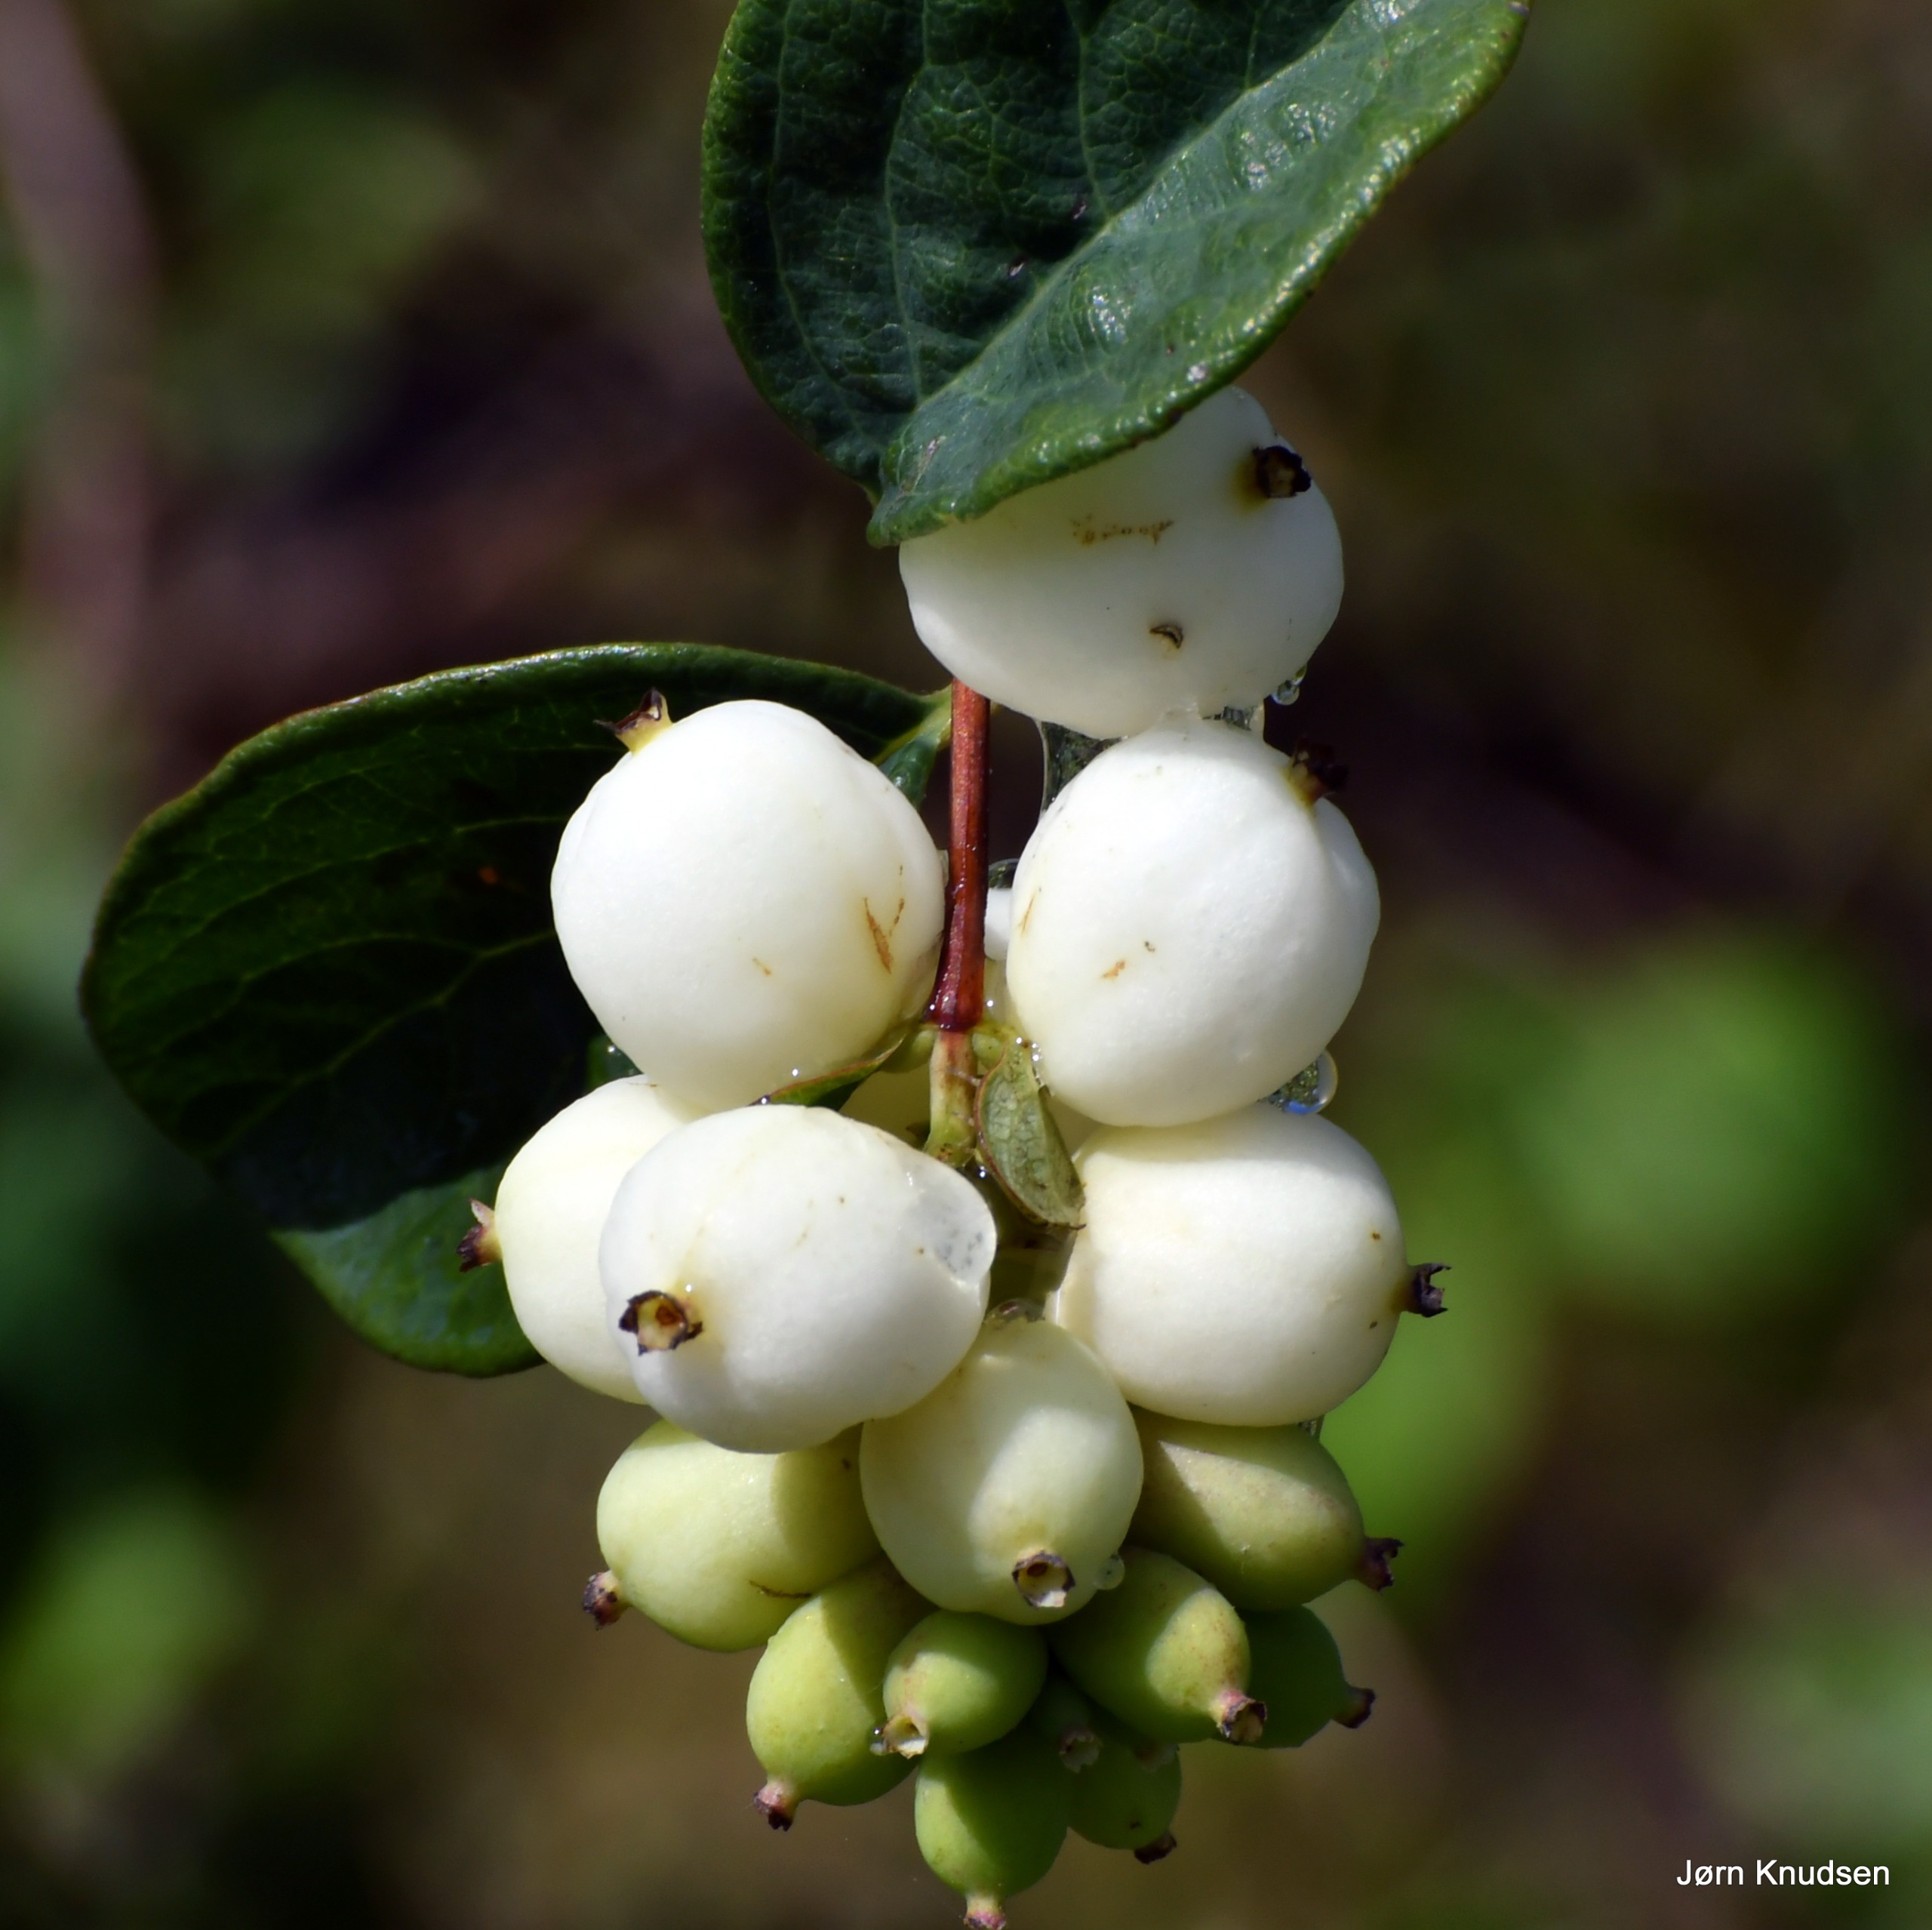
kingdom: Plantae
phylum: Tracheophyta
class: Magnoliopsida
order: Dipsacales
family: Caprifoliaceae
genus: Symphoricarpos
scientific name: Symphoricarpos albus
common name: Almindelig snebær
